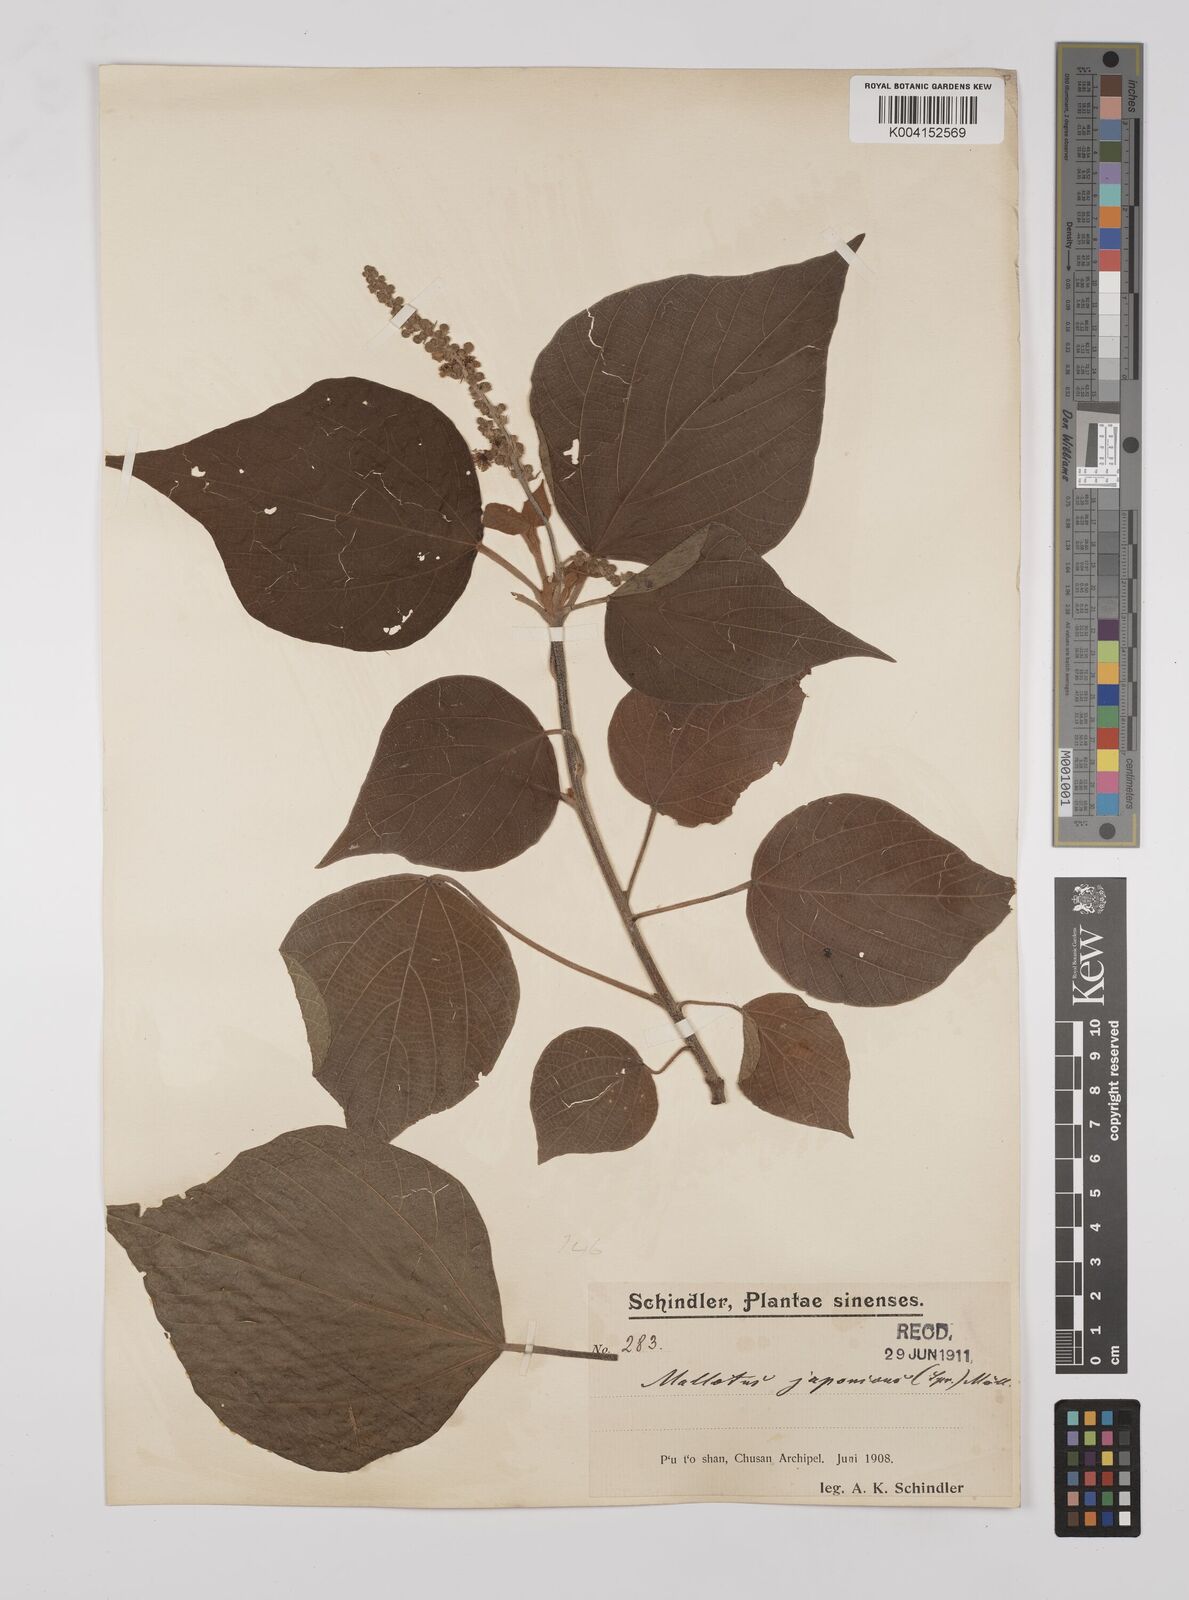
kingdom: Plantae
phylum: Tracheophyta
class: Magnoliopsida
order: Malpighiales
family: Euphorbiaceae
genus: Mallotus
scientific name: Mallotus japonicus
